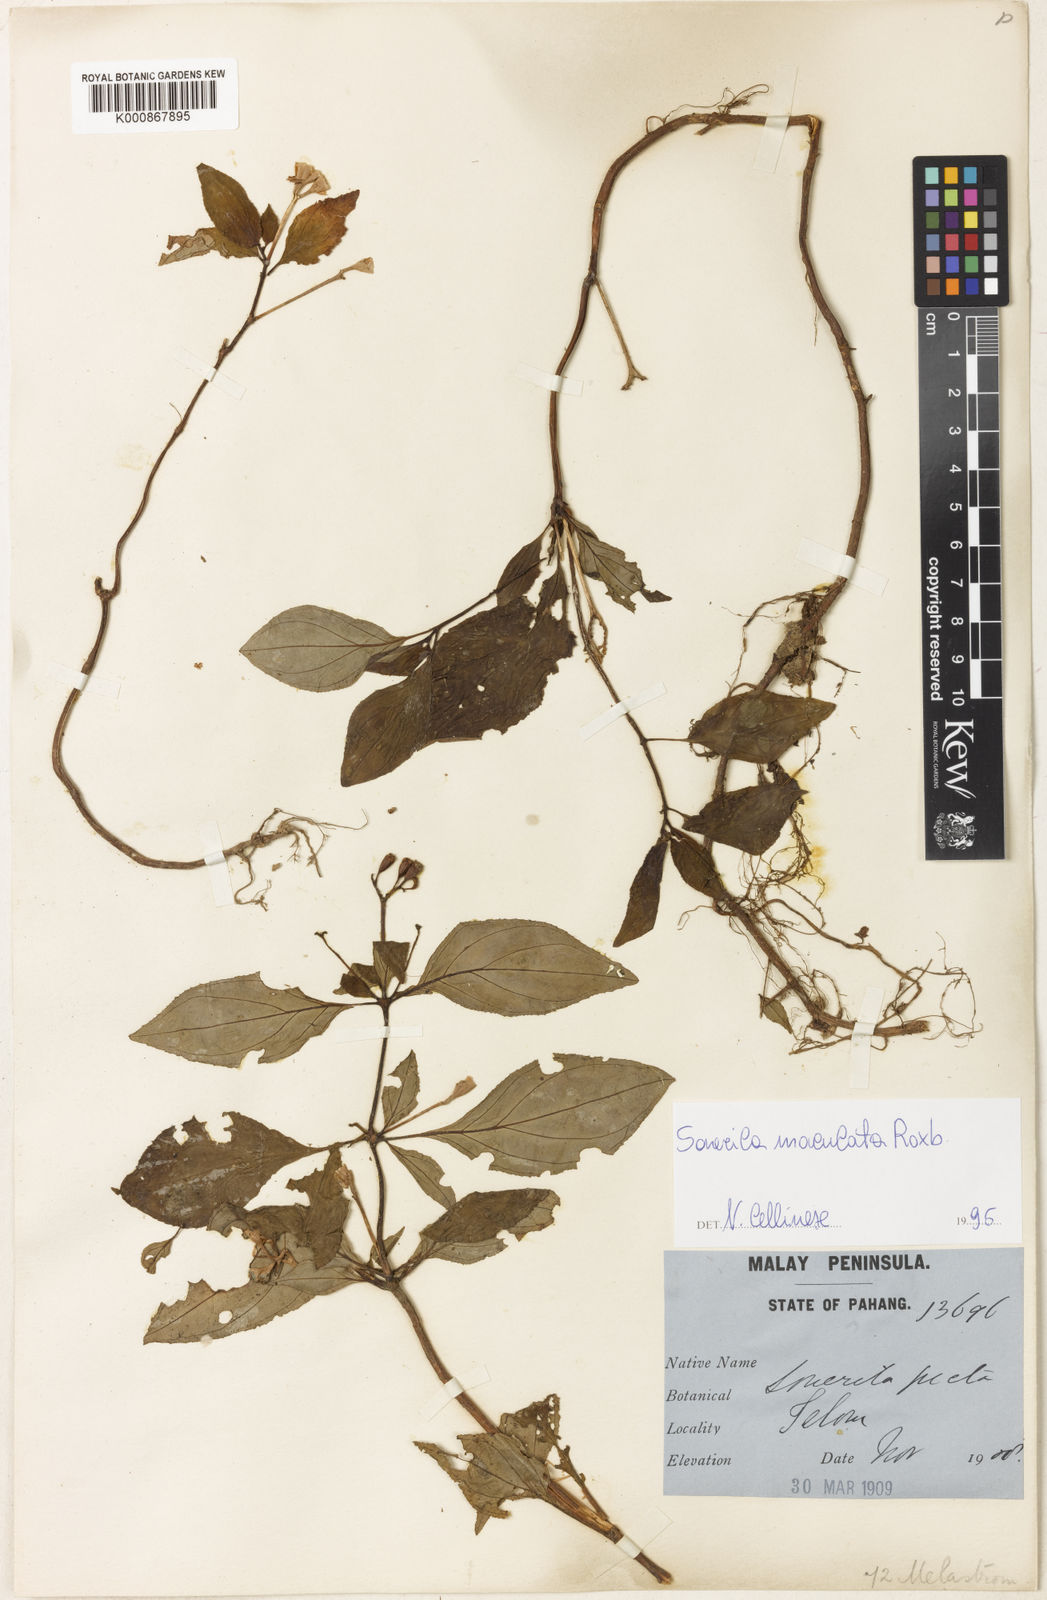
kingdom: Plantae
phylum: Tracheophyta
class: Magnoliopsida
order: Myrtales
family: Melastomataceae
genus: Sonerila
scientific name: Sonerila maculata
